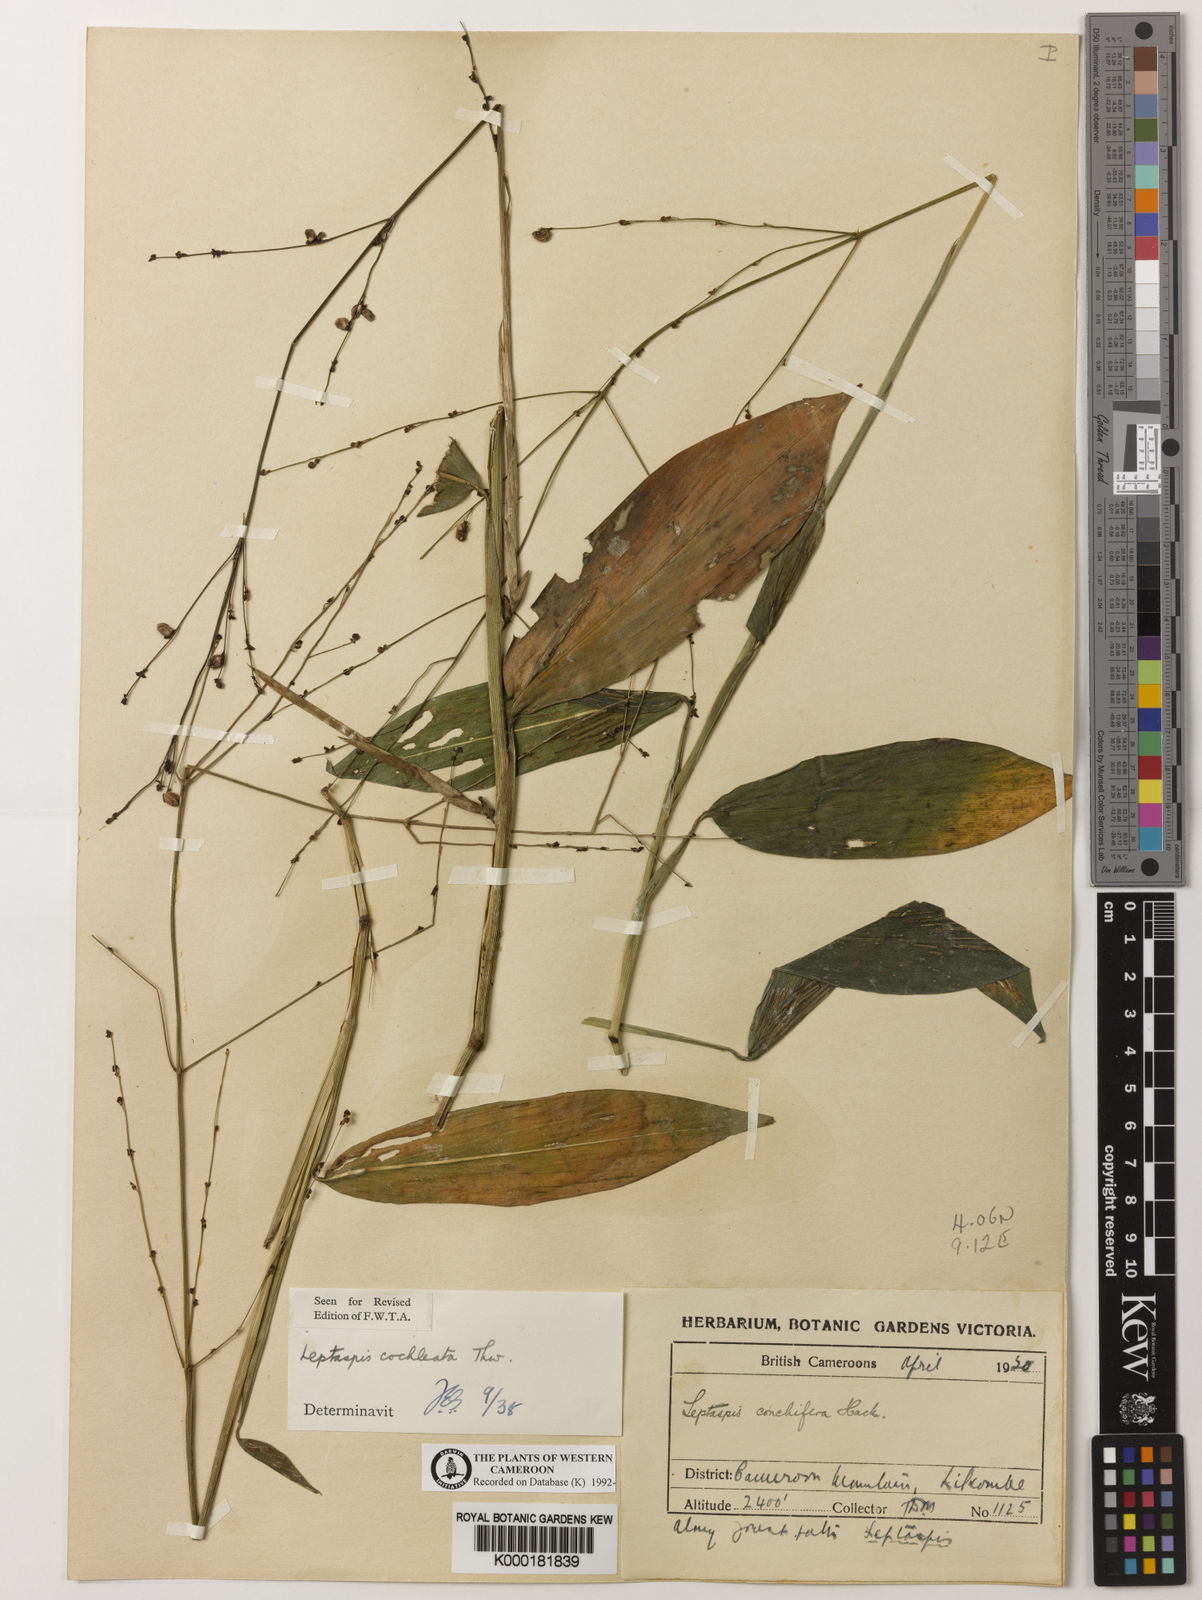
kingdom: Plantae
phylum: Tracheophyta
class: Liliopsida
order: Poales
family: Poaceae
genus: Leptaspis
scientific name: Leptaspis zeylanica
